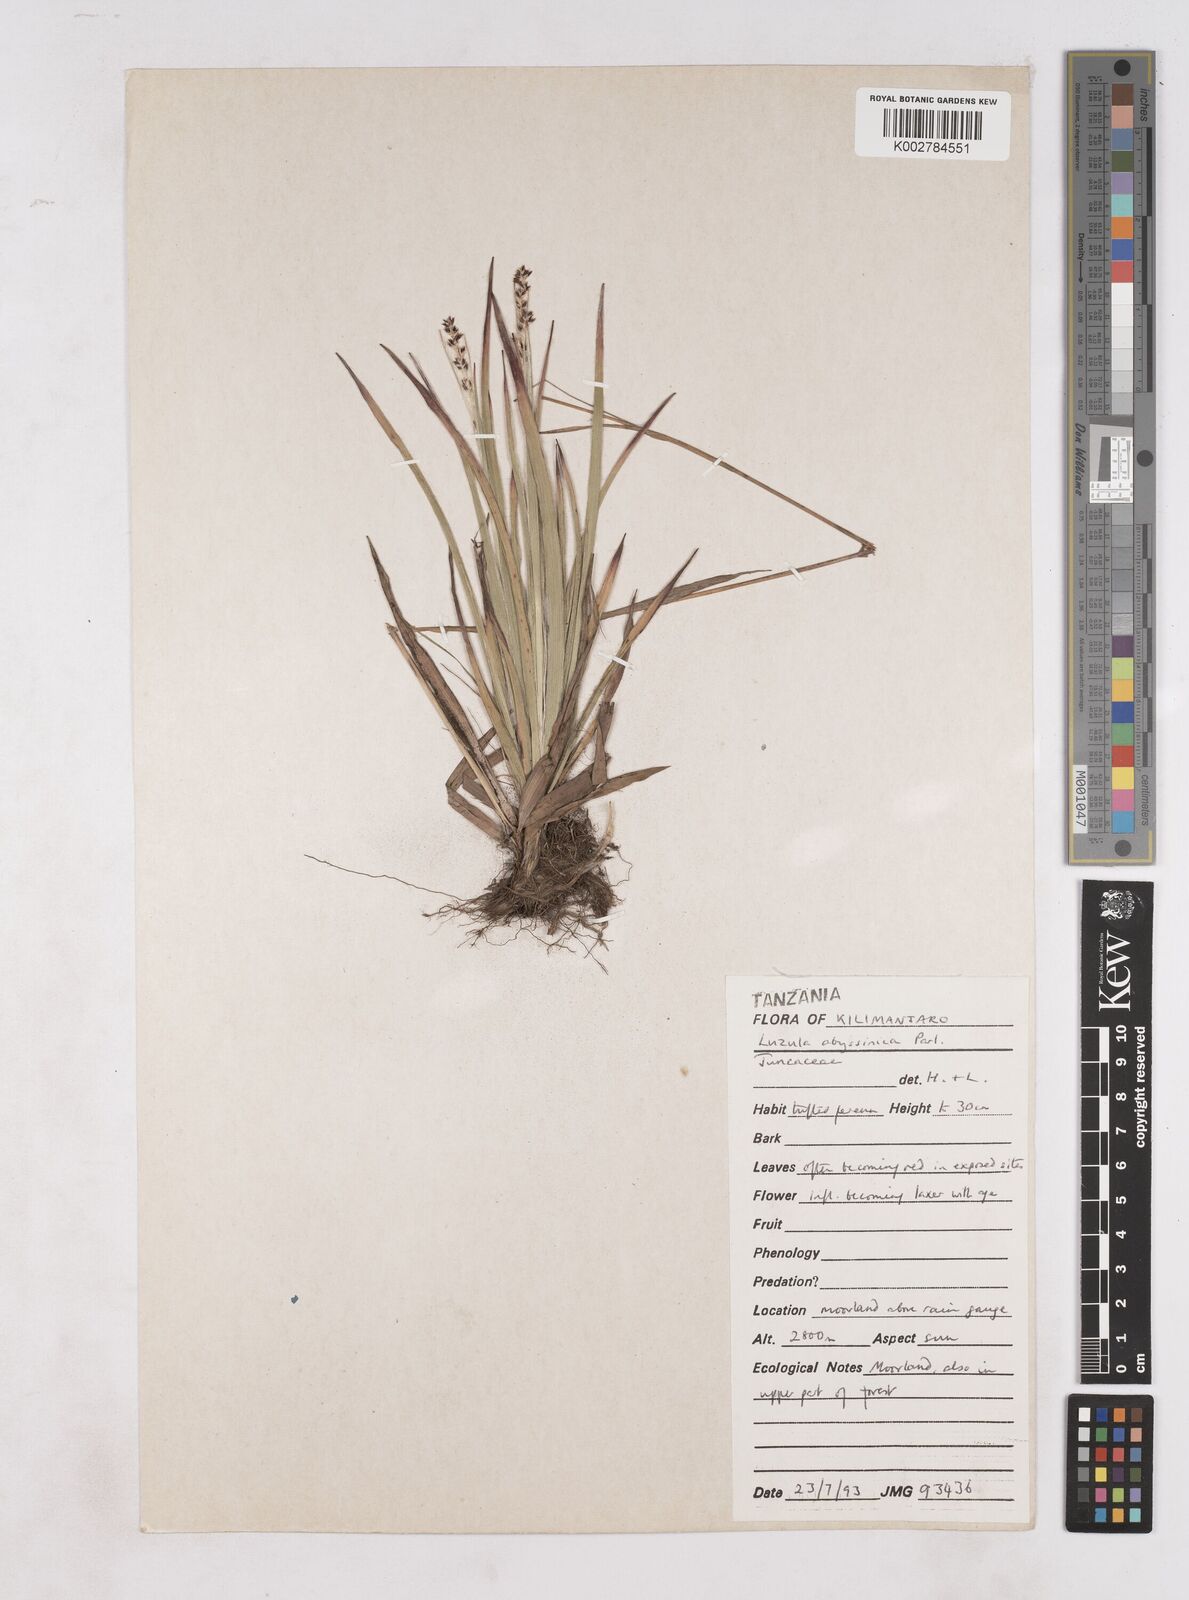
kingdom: Plantae
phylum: Tracheophyta
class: Liliopsida
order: Poales
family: Juncaceae
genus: Luzula
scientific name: Luzula abyssinica
